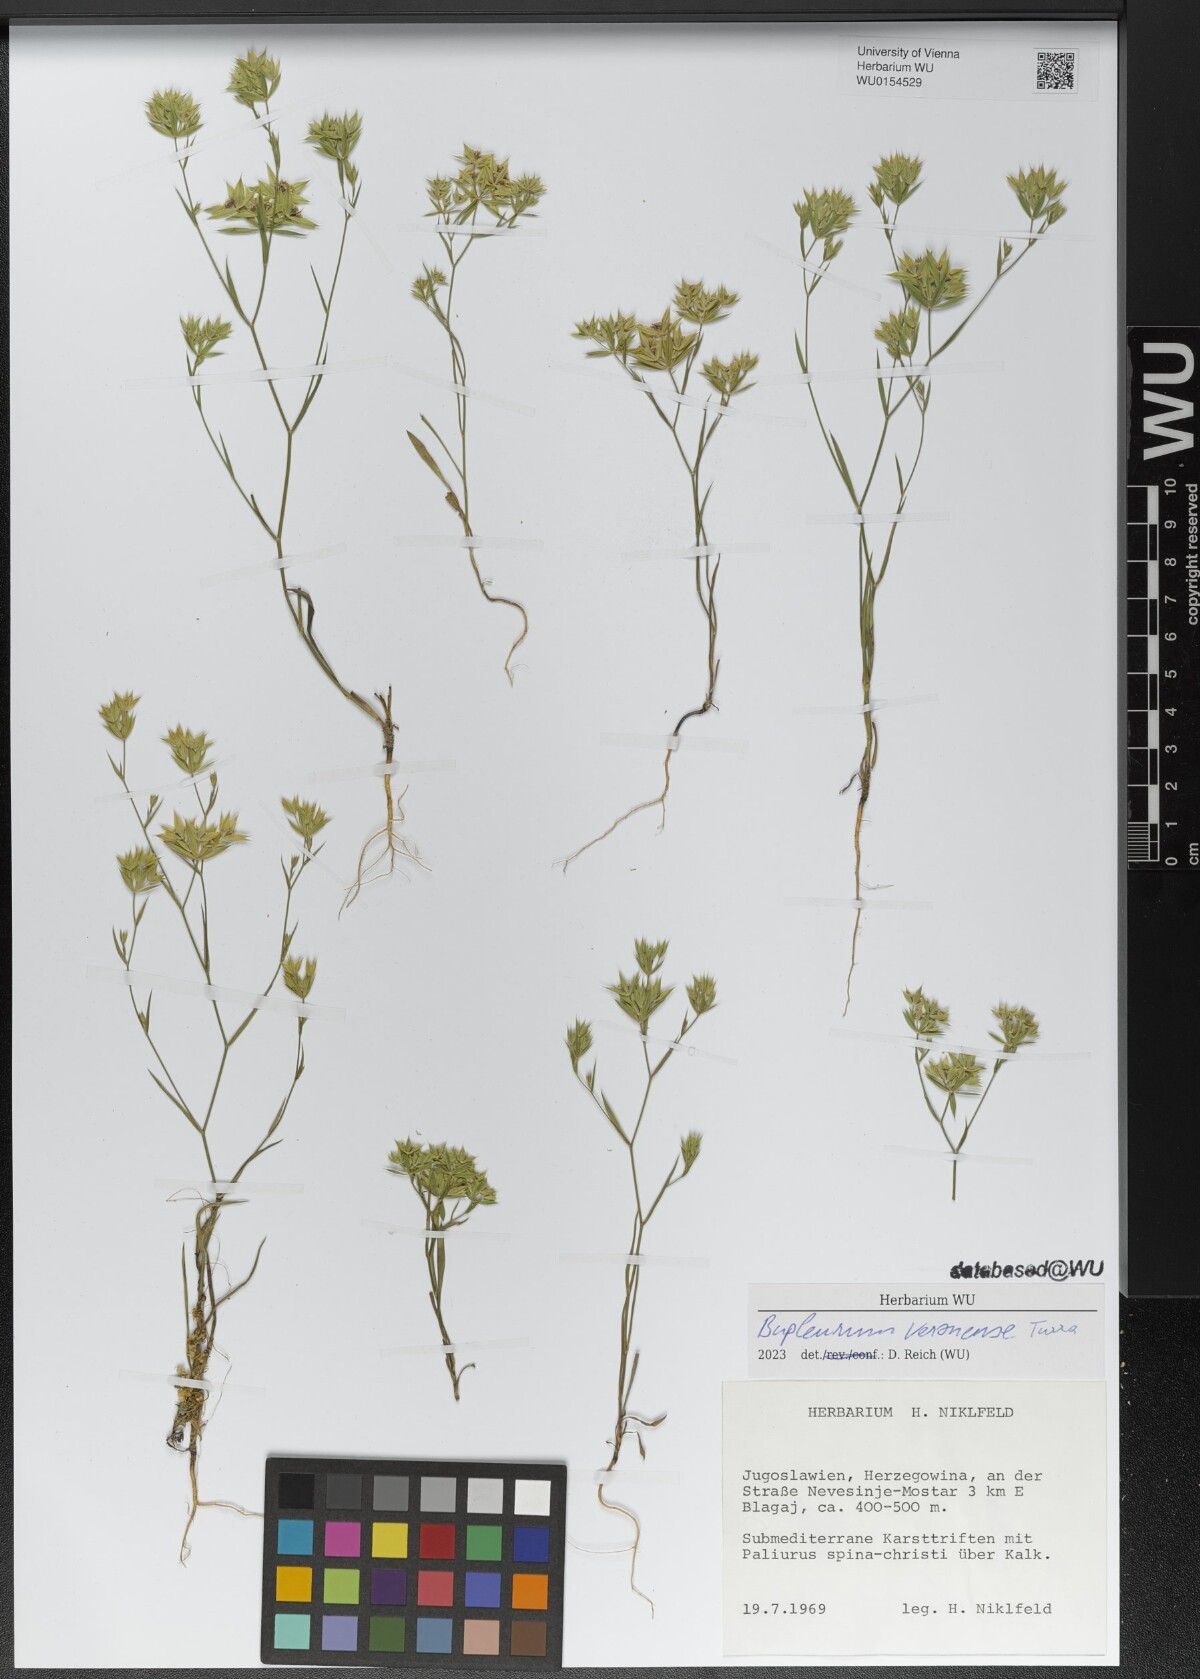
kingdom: Plantae
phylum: Tracheophyta
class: Magnoliopsida
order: Apiales
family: Apiaceae
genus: Bupleurum
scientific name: Bupleurum veronense
